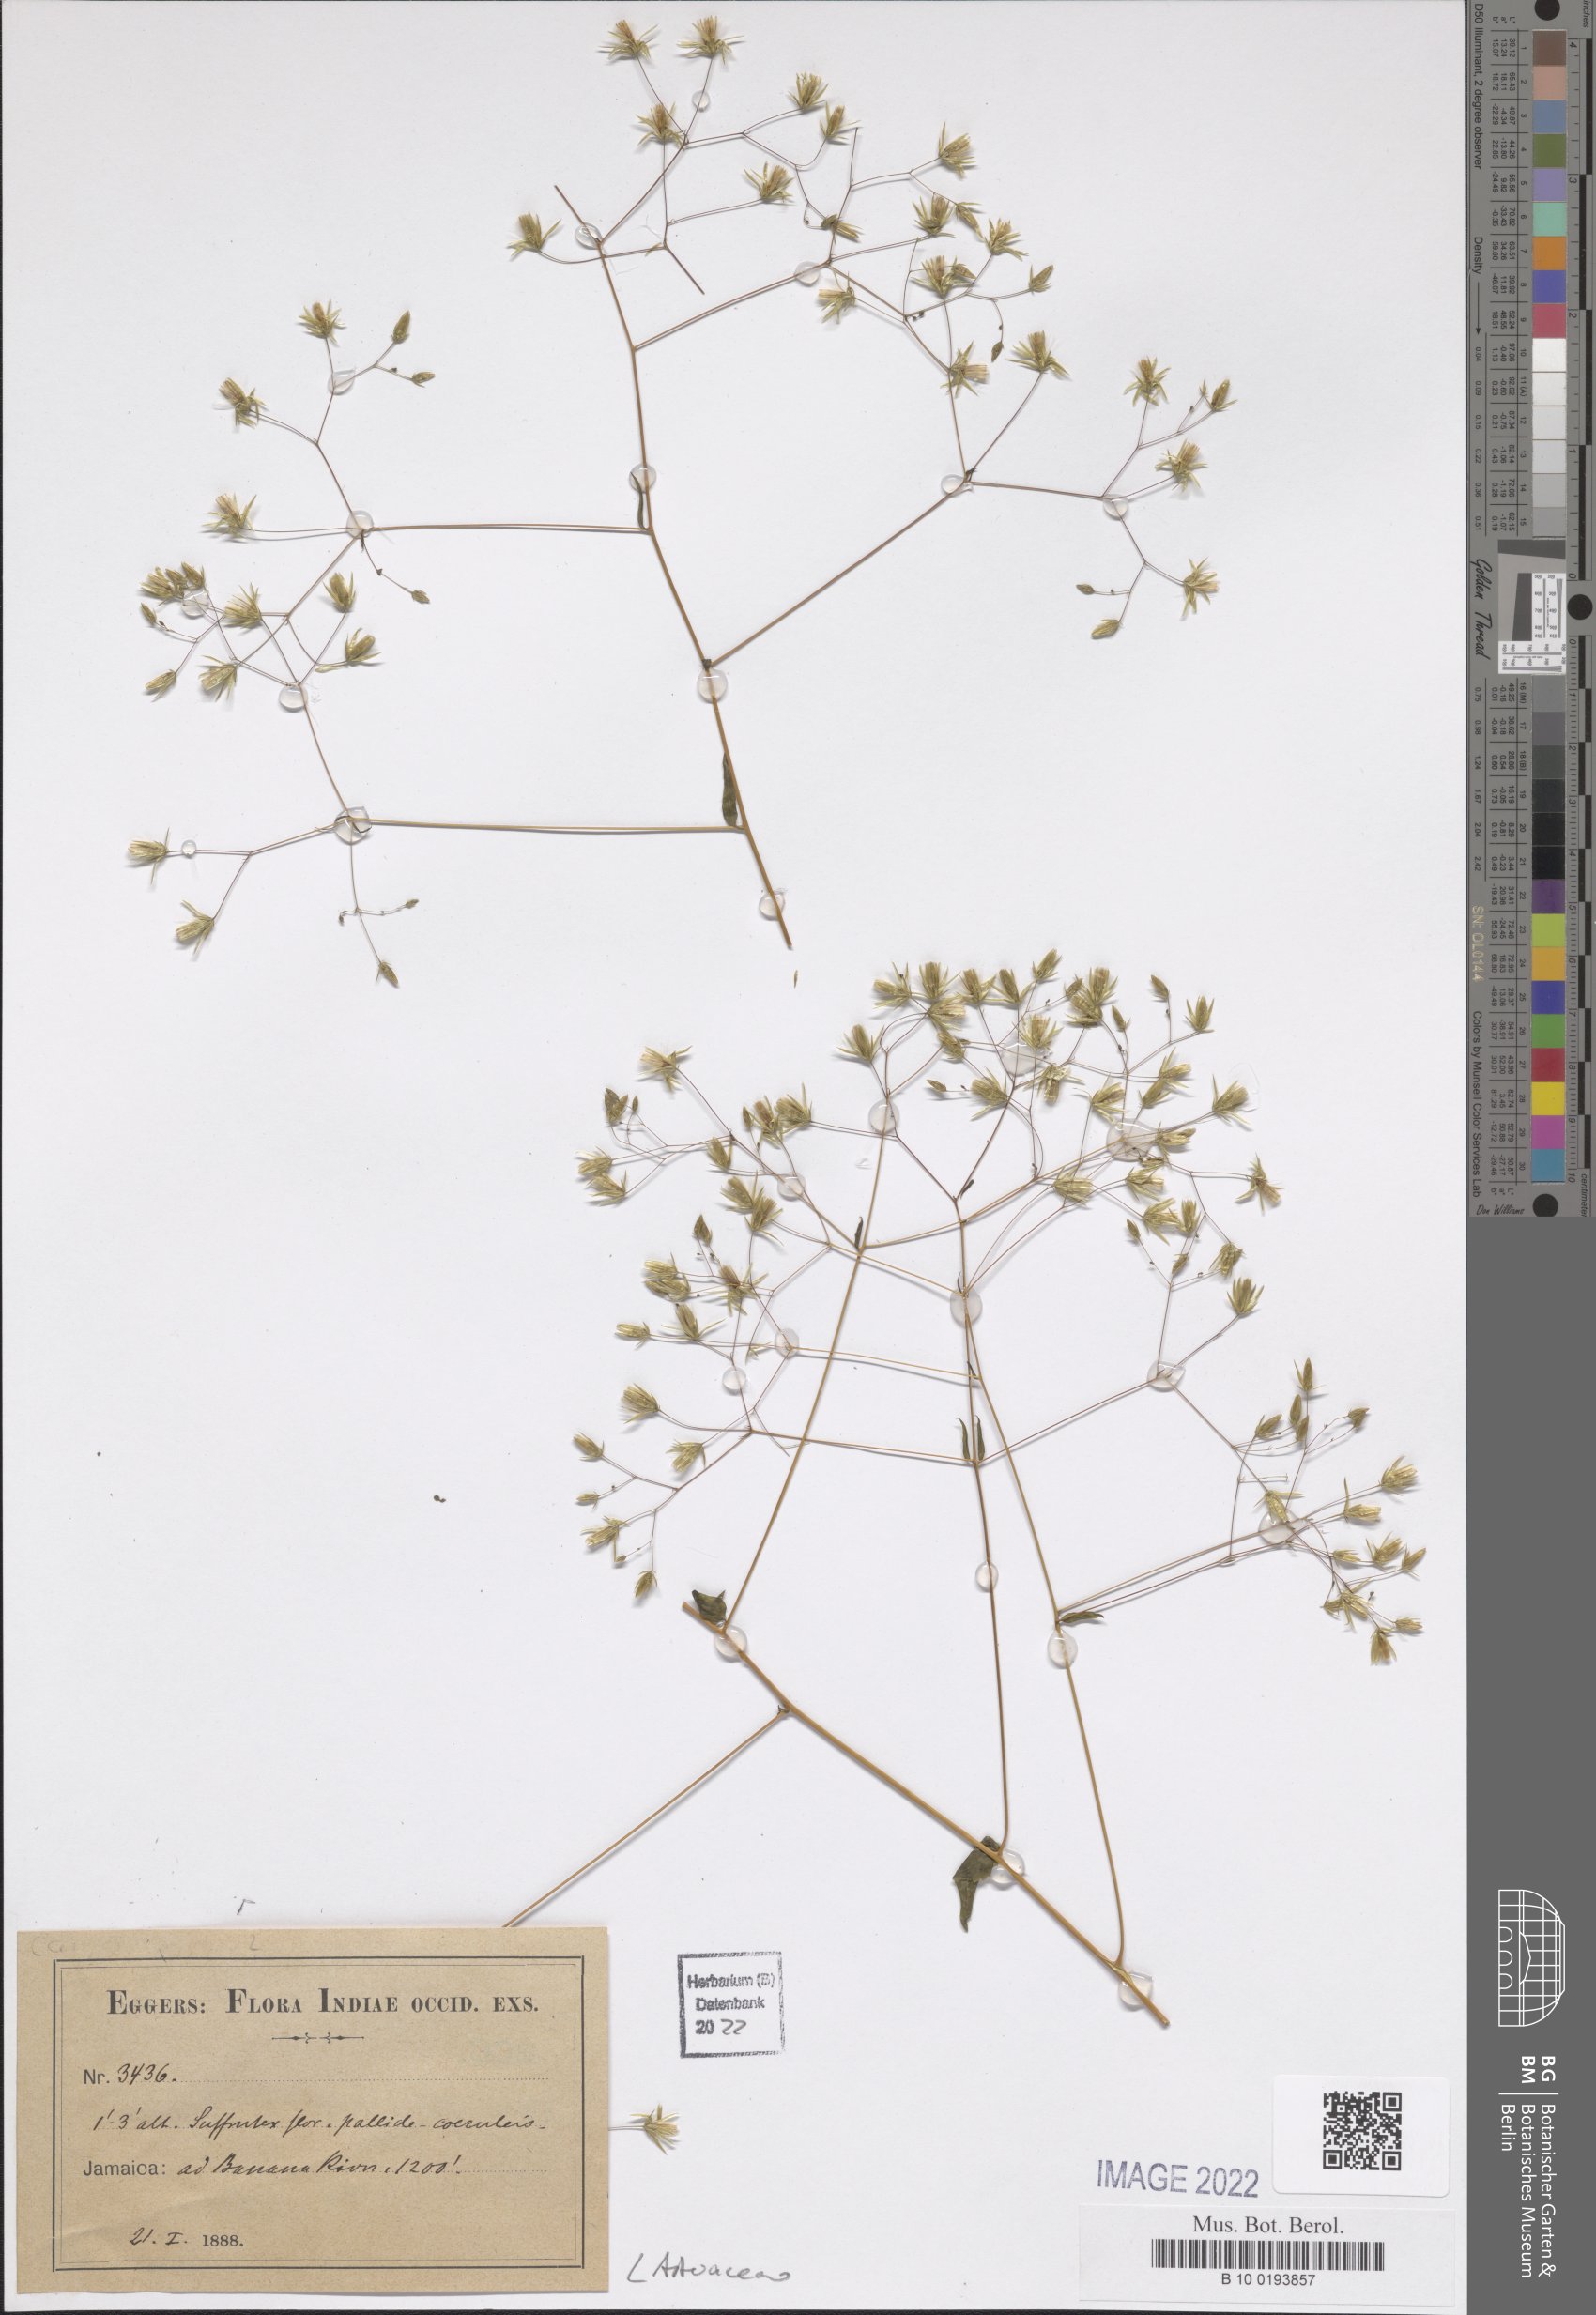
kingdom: Plantae
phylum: Tracheophyta
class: Magnoliopsida
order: Asterales
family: Asteraceae
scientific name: Asteraceae
